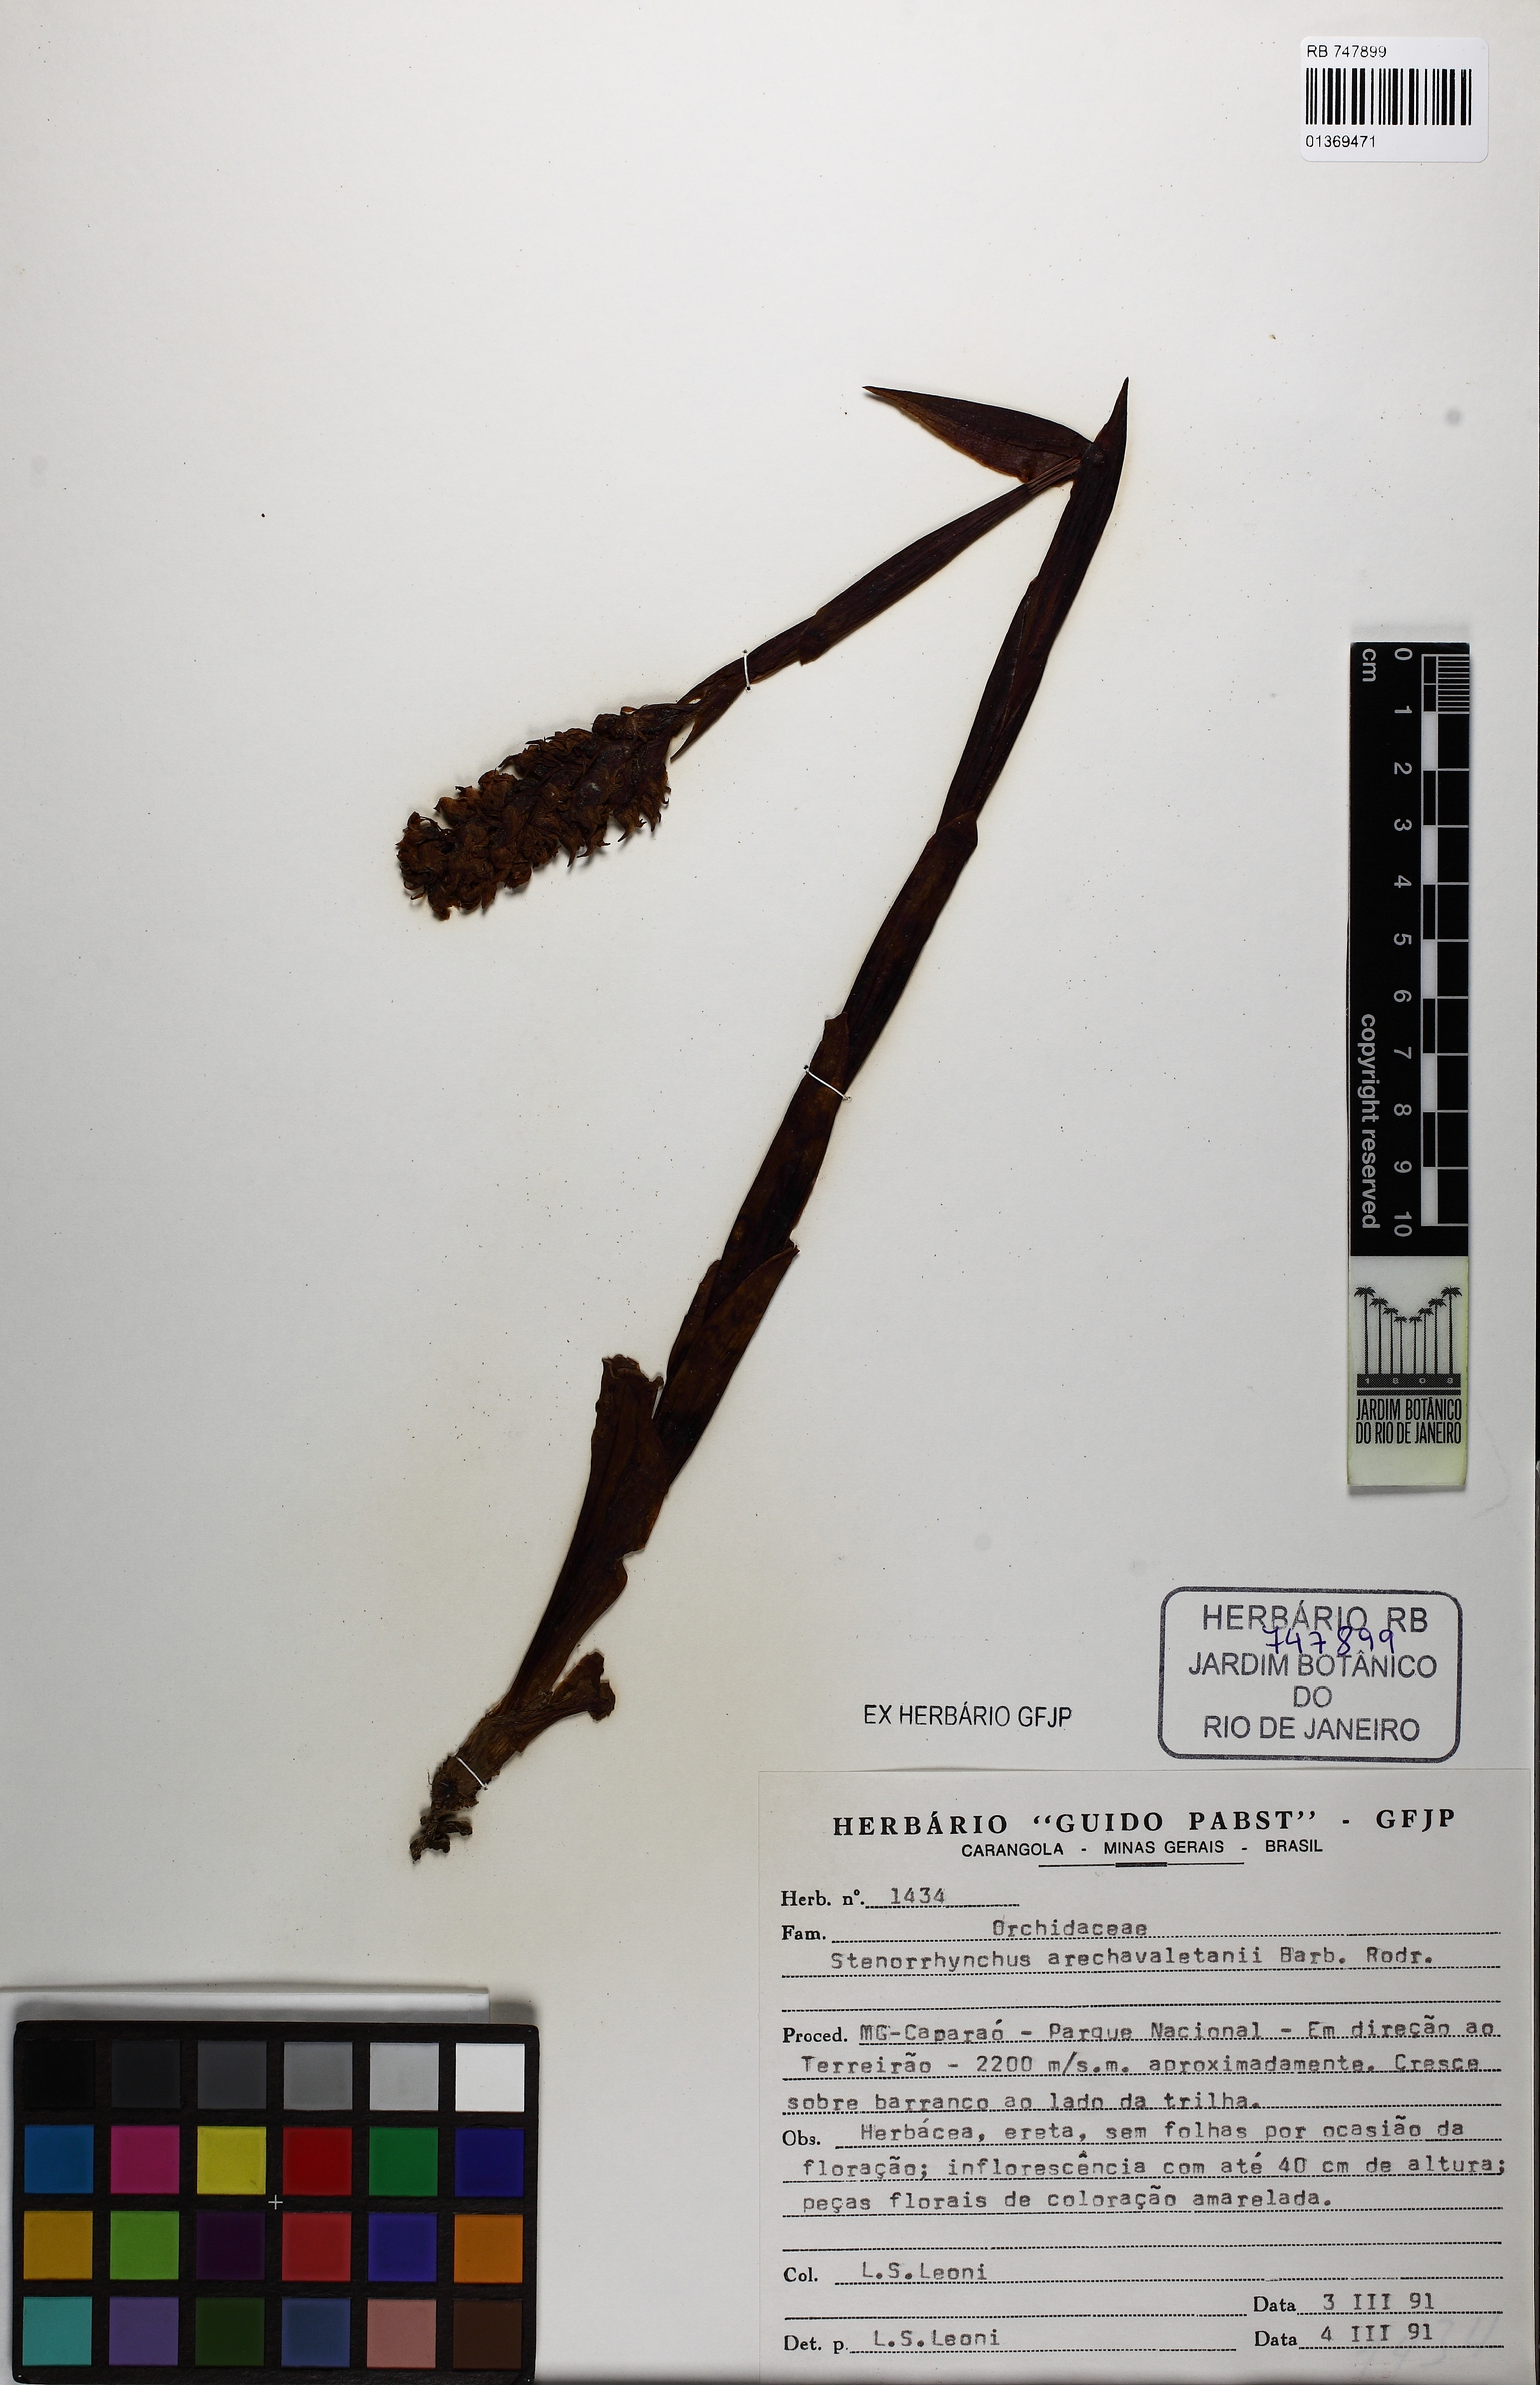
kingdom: Plantae
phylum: Tracheophyta
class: Liliopsida
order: Asparagales
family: Orchidaceae
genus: Skeptrostachys
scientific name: Skeptrostachys arechavaletanii
